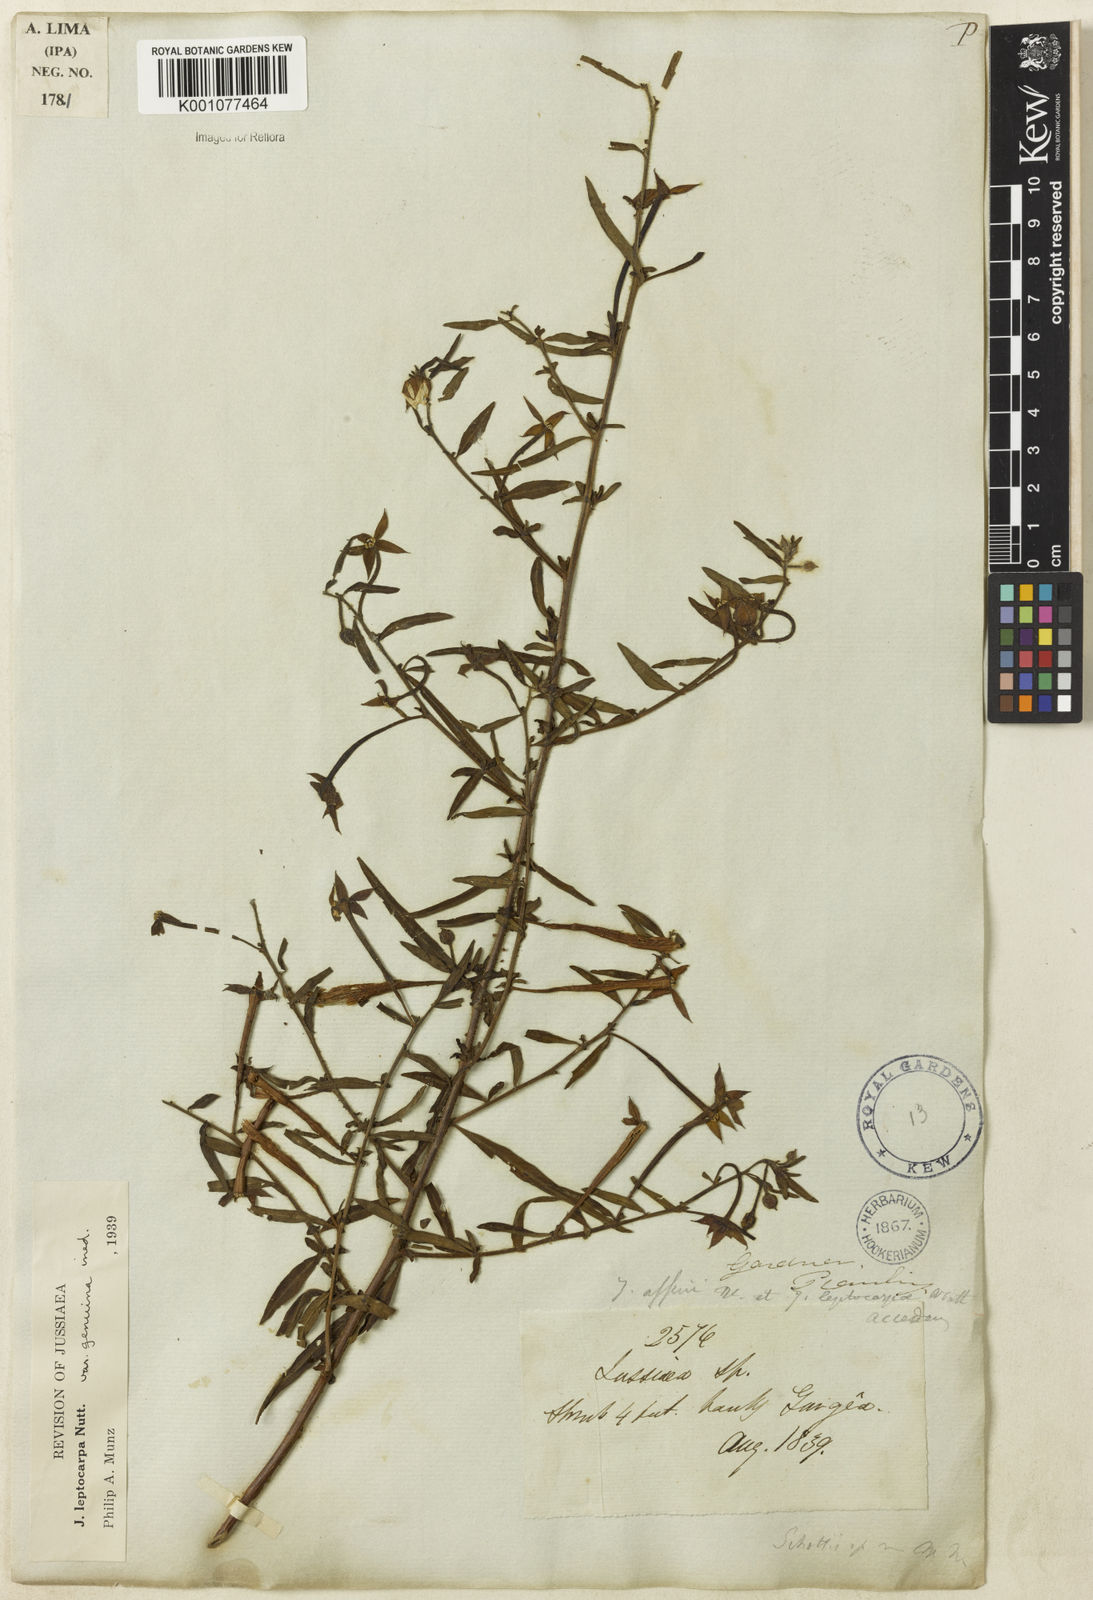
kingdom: Plantae
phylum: Tracheophyta
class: Magnoliopsida
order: Myrtales
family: Onagraceae
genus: Ludwigia
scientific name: Ludwigia leptocarpa
